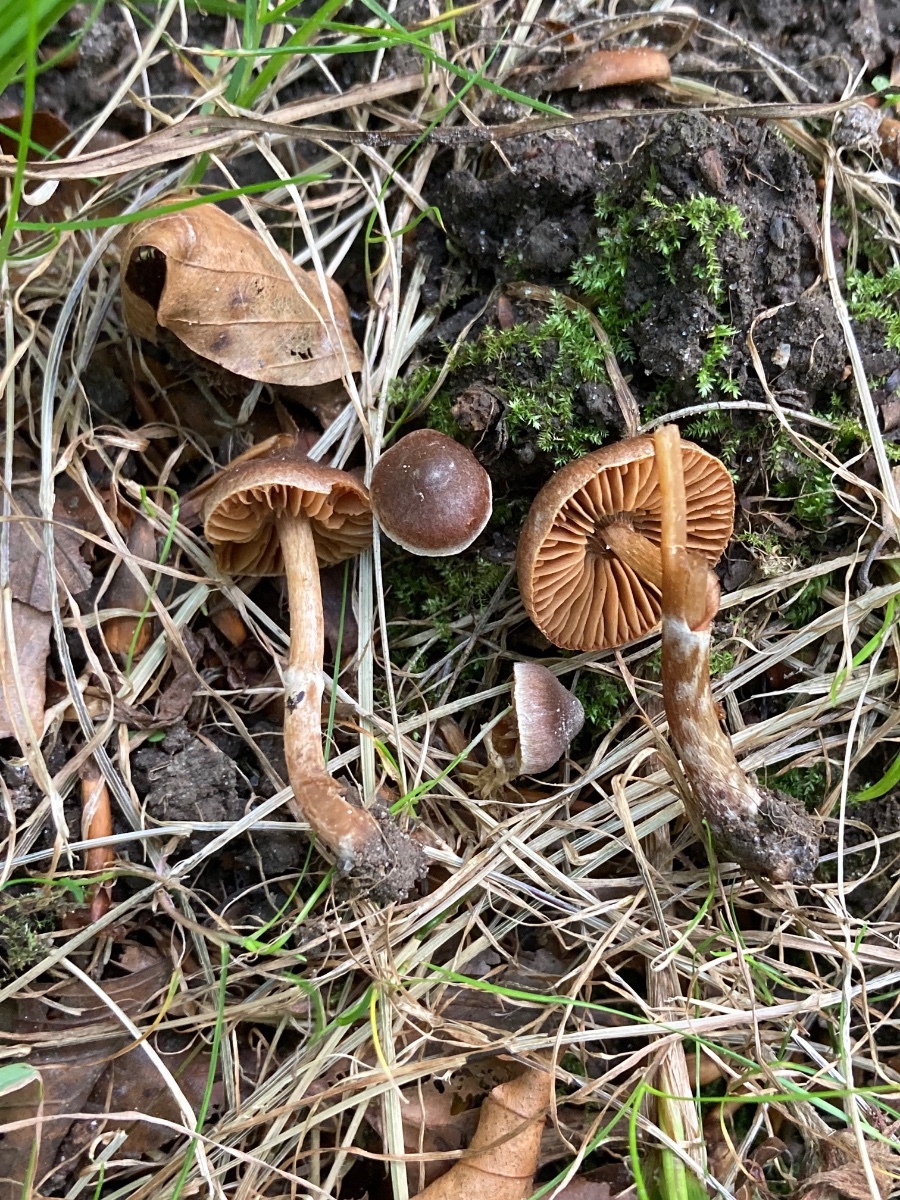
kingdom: Fungi
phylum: Basidiomycota
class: Agaricomycetes
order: Agaricales
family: Cortinariaceae
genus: Cortinarius
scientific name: Cortinarius flexibilifolius
